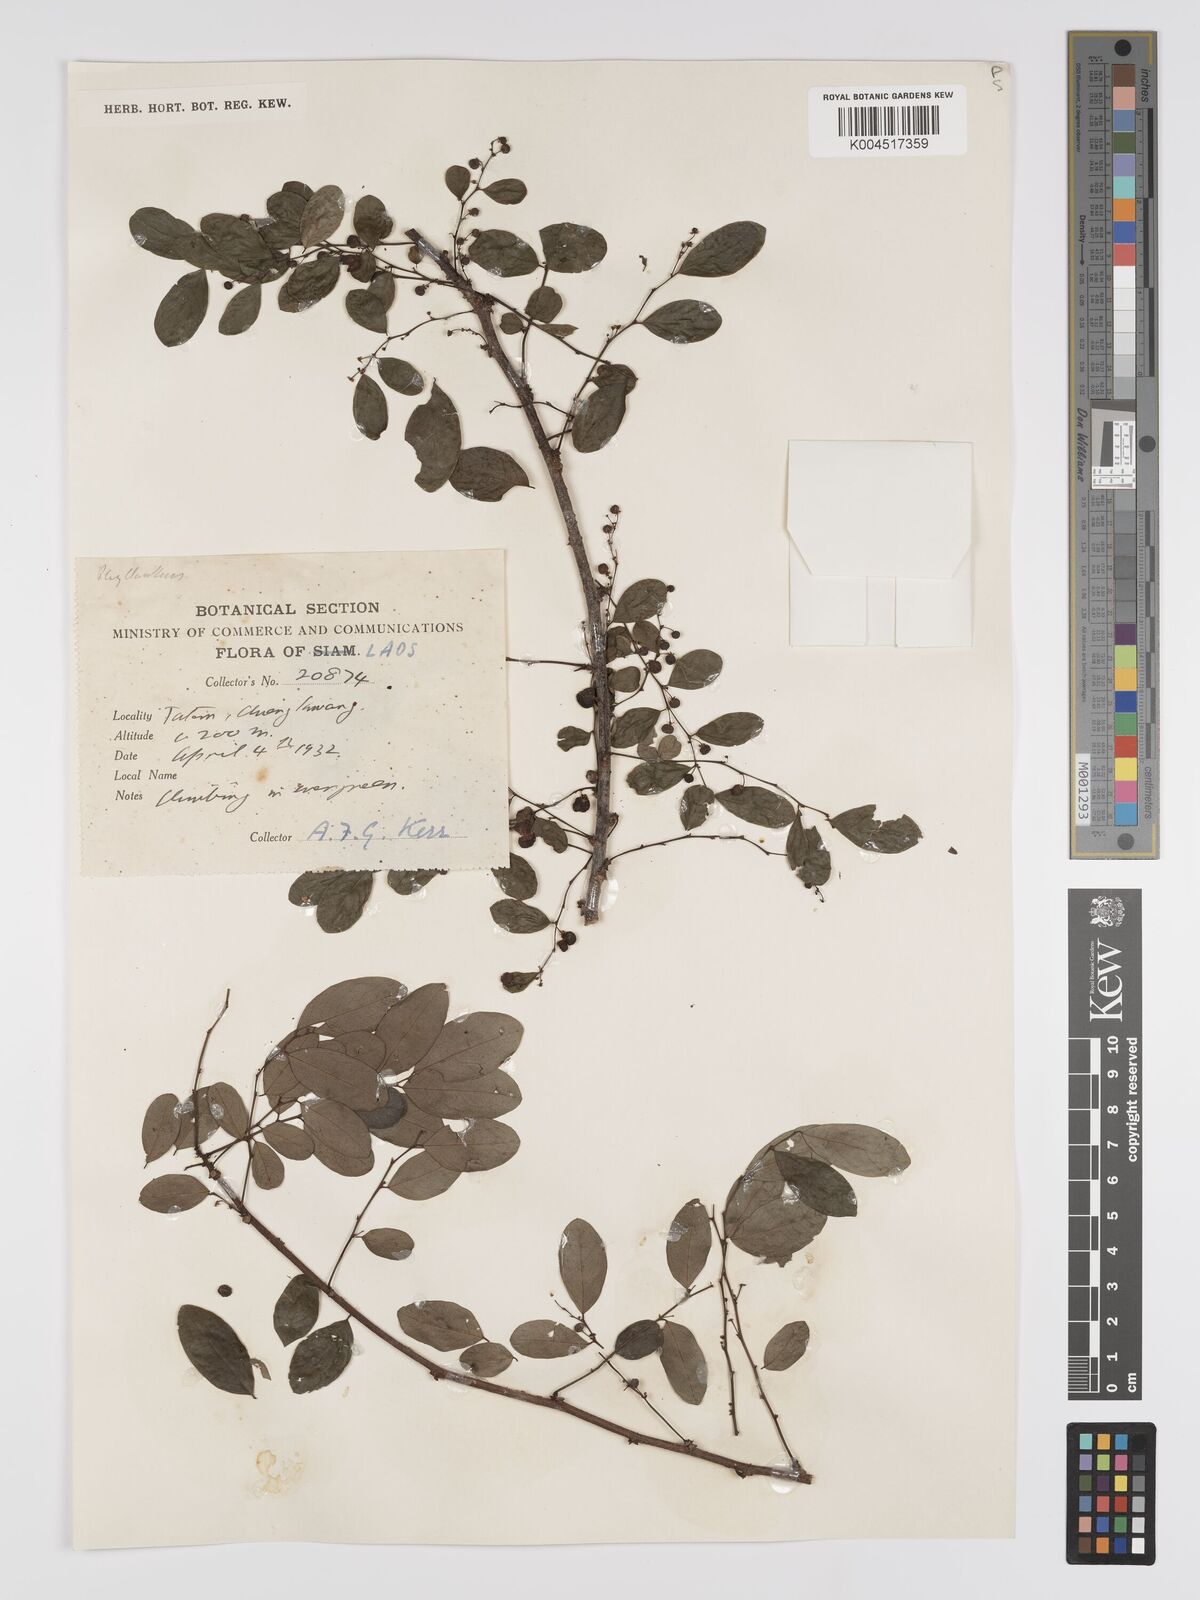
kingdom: Plantae
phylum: Tracheophyta
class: Magnoliopsida
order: Malpighiales
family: Phyllanthaceae
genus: Phyllanthus
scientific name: Phyllanthus
